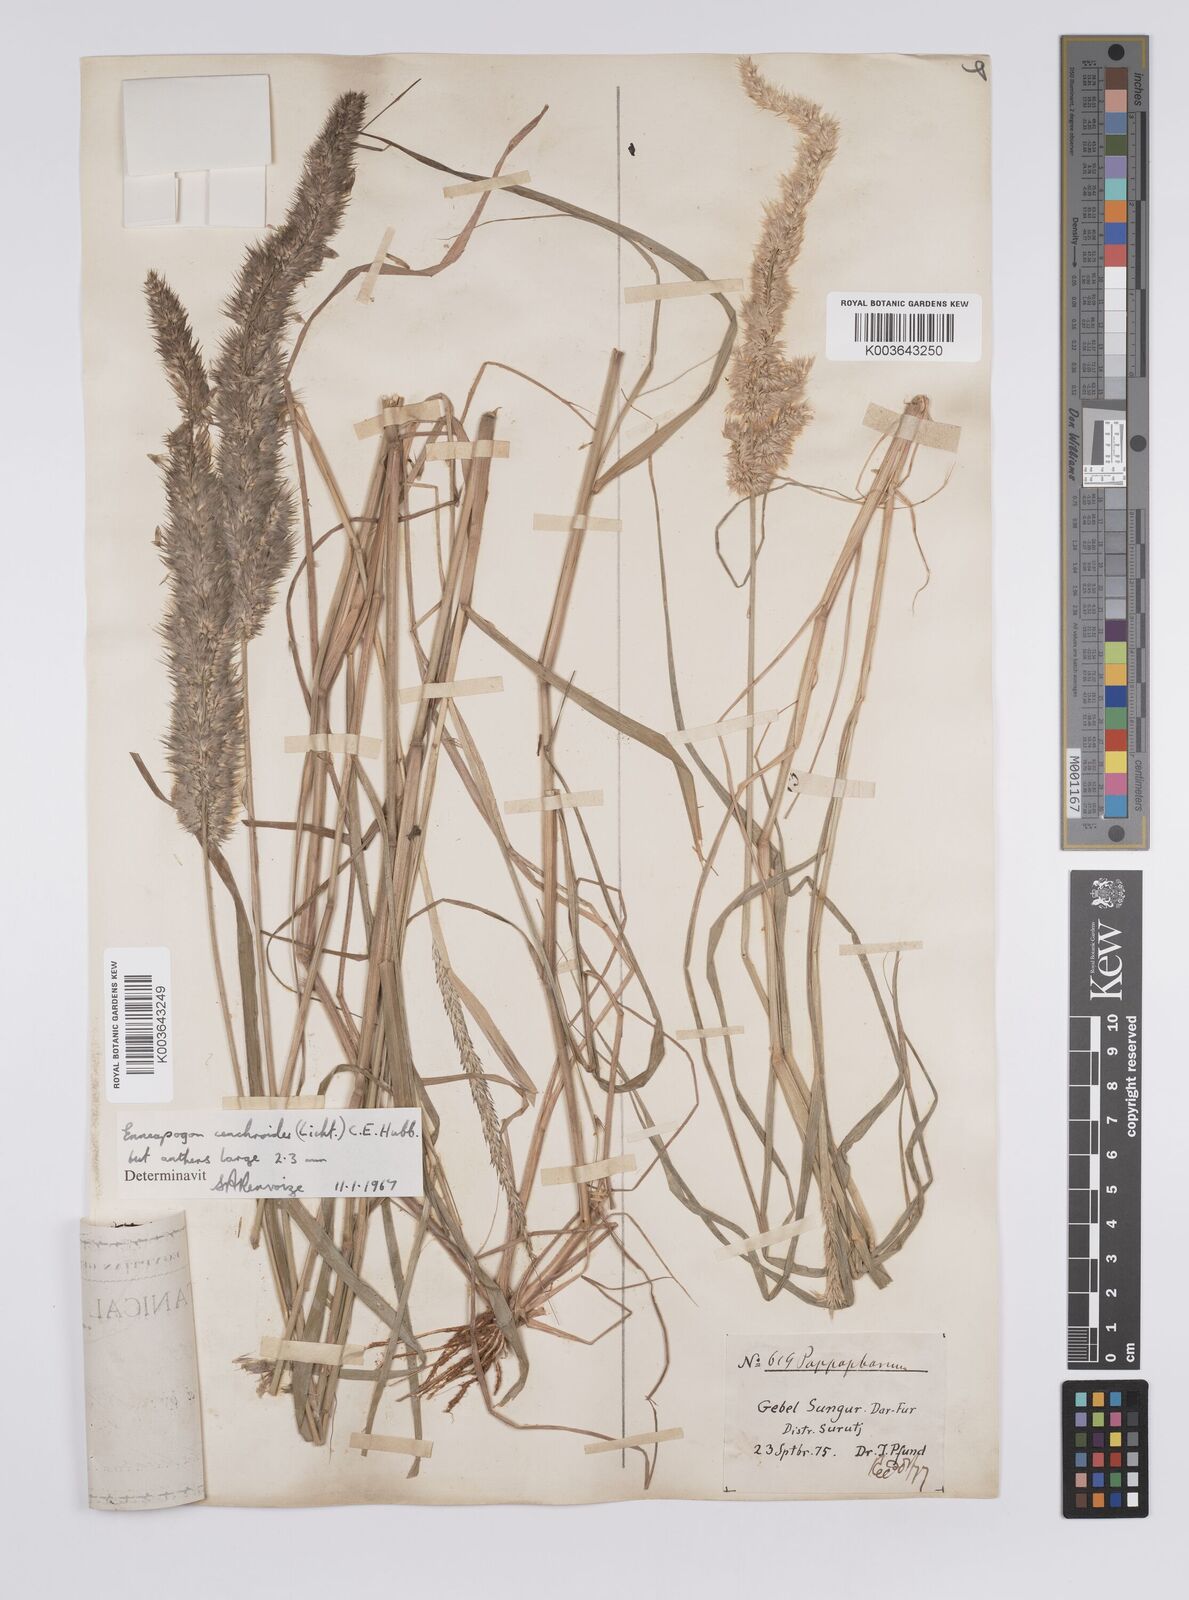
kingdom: Plantae
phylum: Tracheophyta
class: Liliopsida
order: Poales
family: Poaceae
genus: Enneapogon
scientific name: Enneapogon cenchroides
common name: Soft feather pappusgrass
